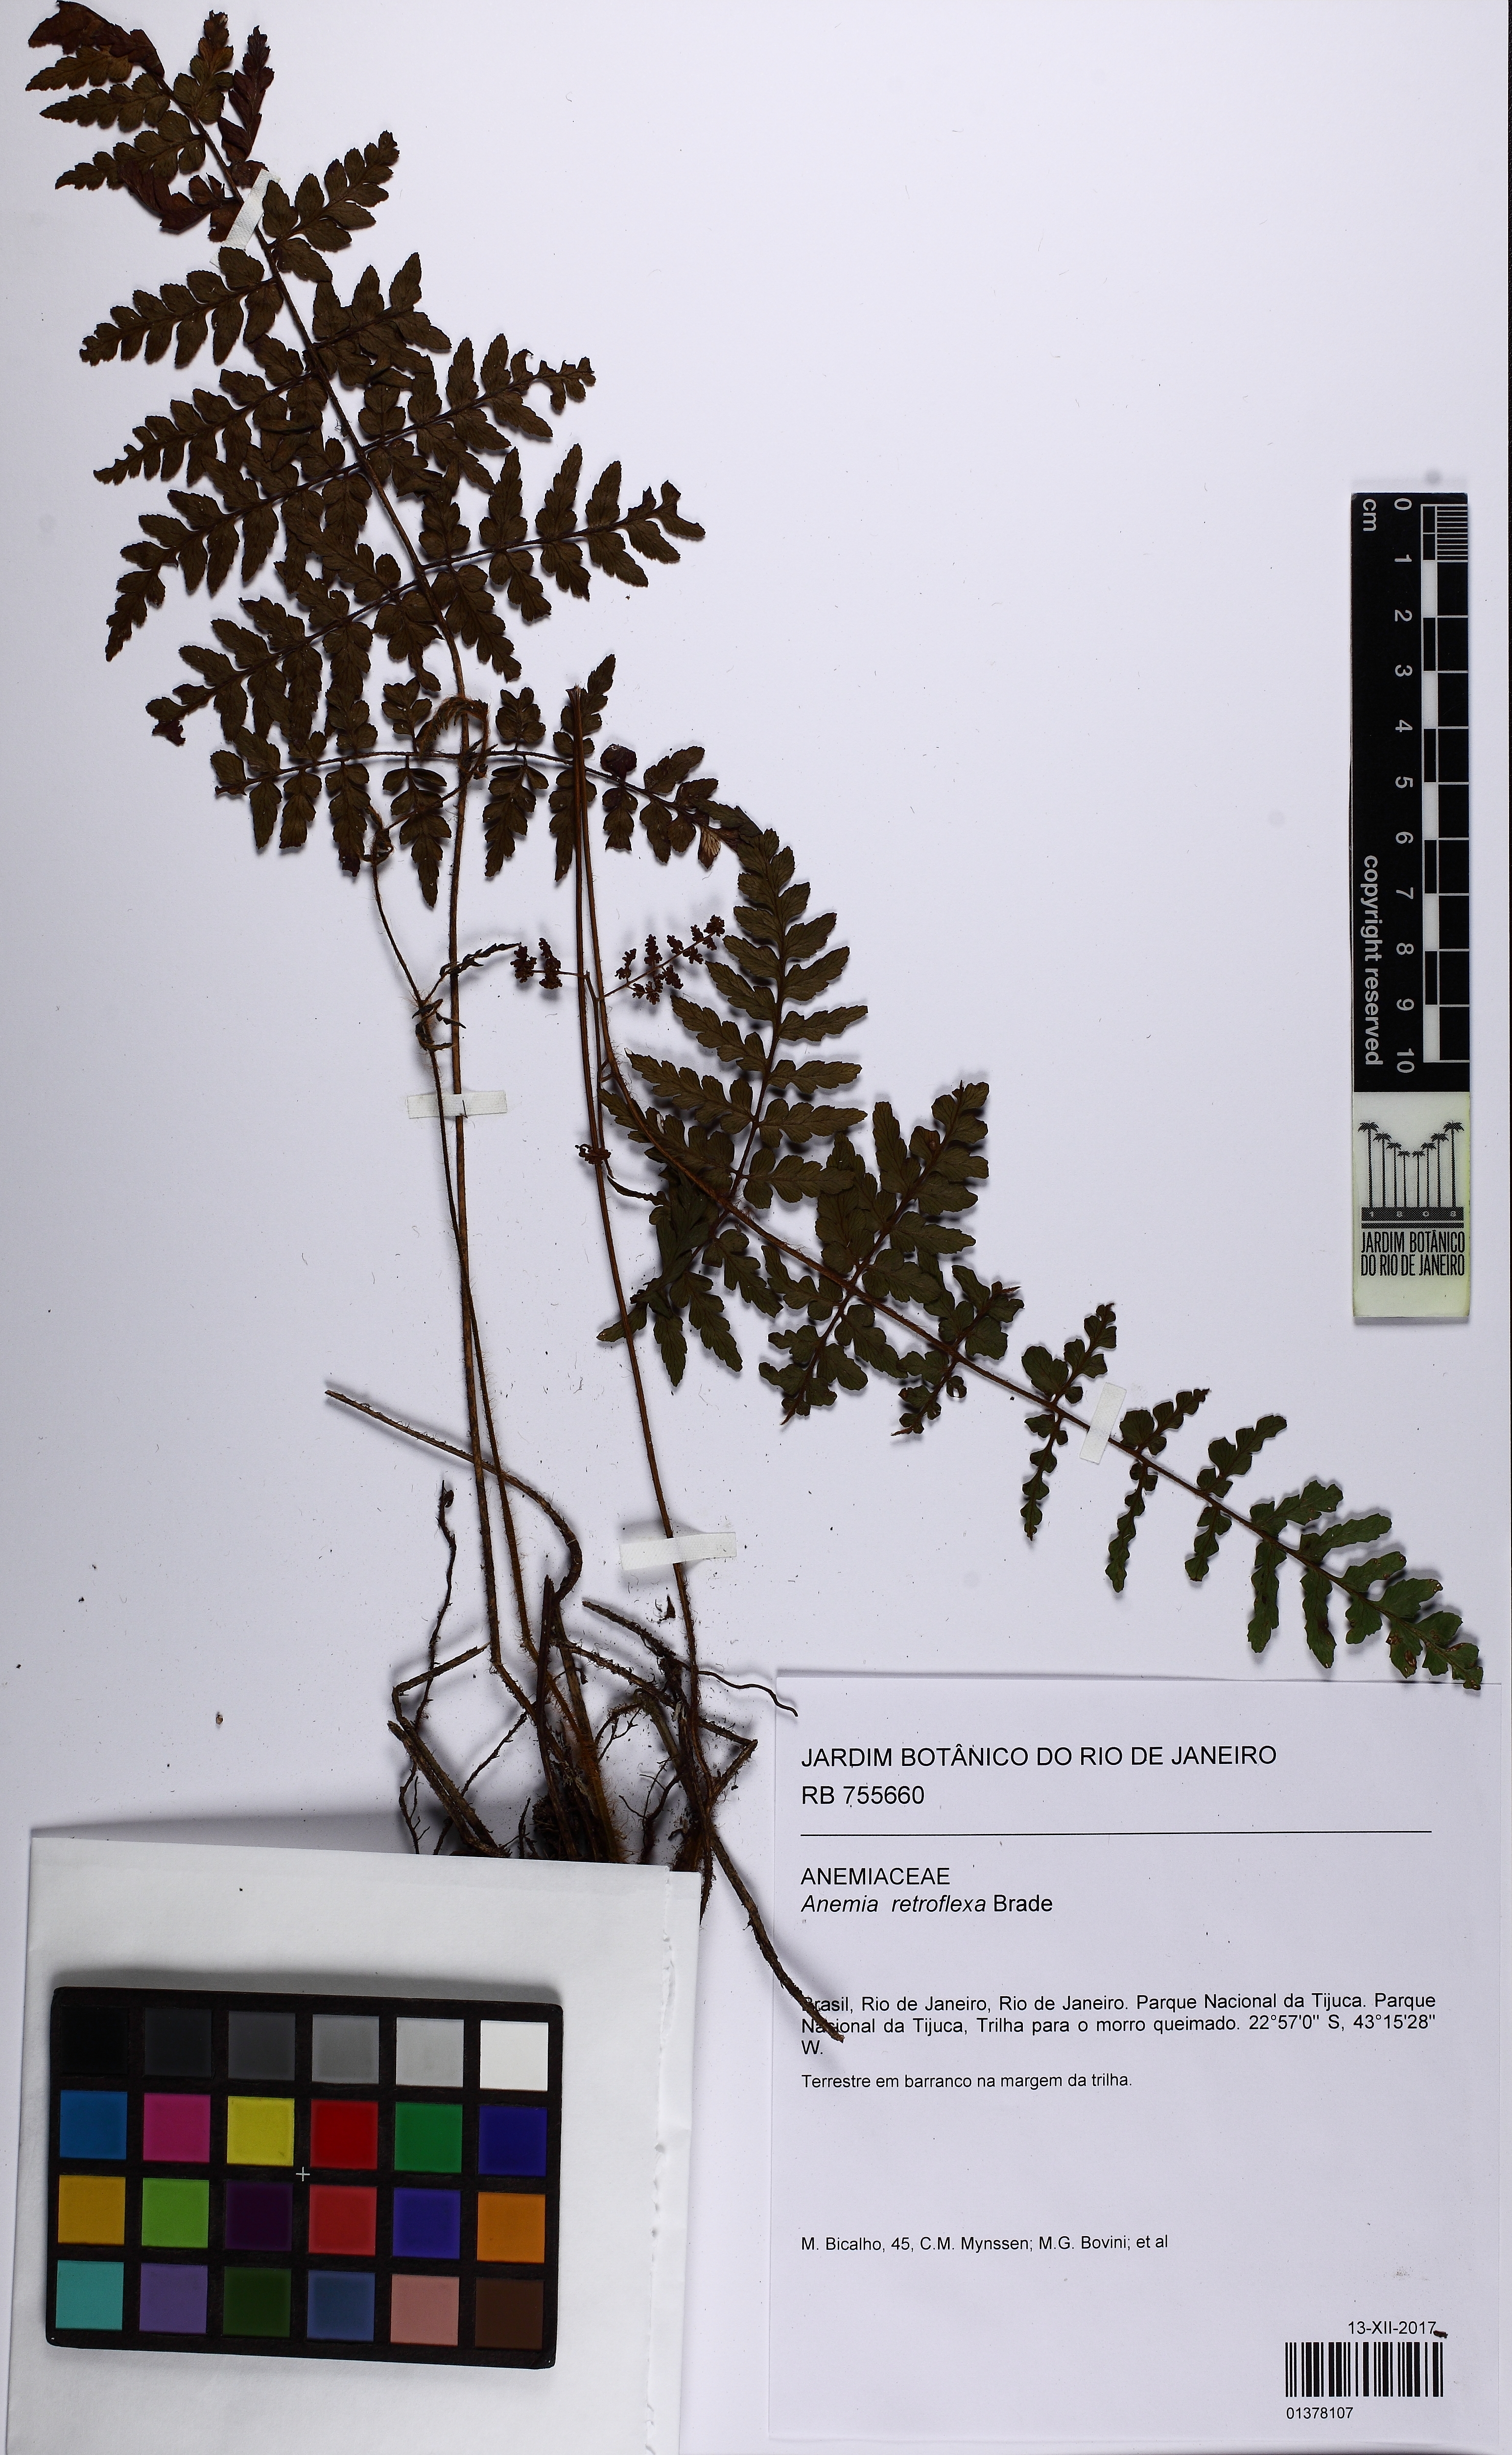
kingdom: Plantae
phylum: Tracheophyta
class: Polypodiopsida
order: Schizaeales
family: Anemiaceae
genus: Anemia
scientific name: Anemia retroflexa
